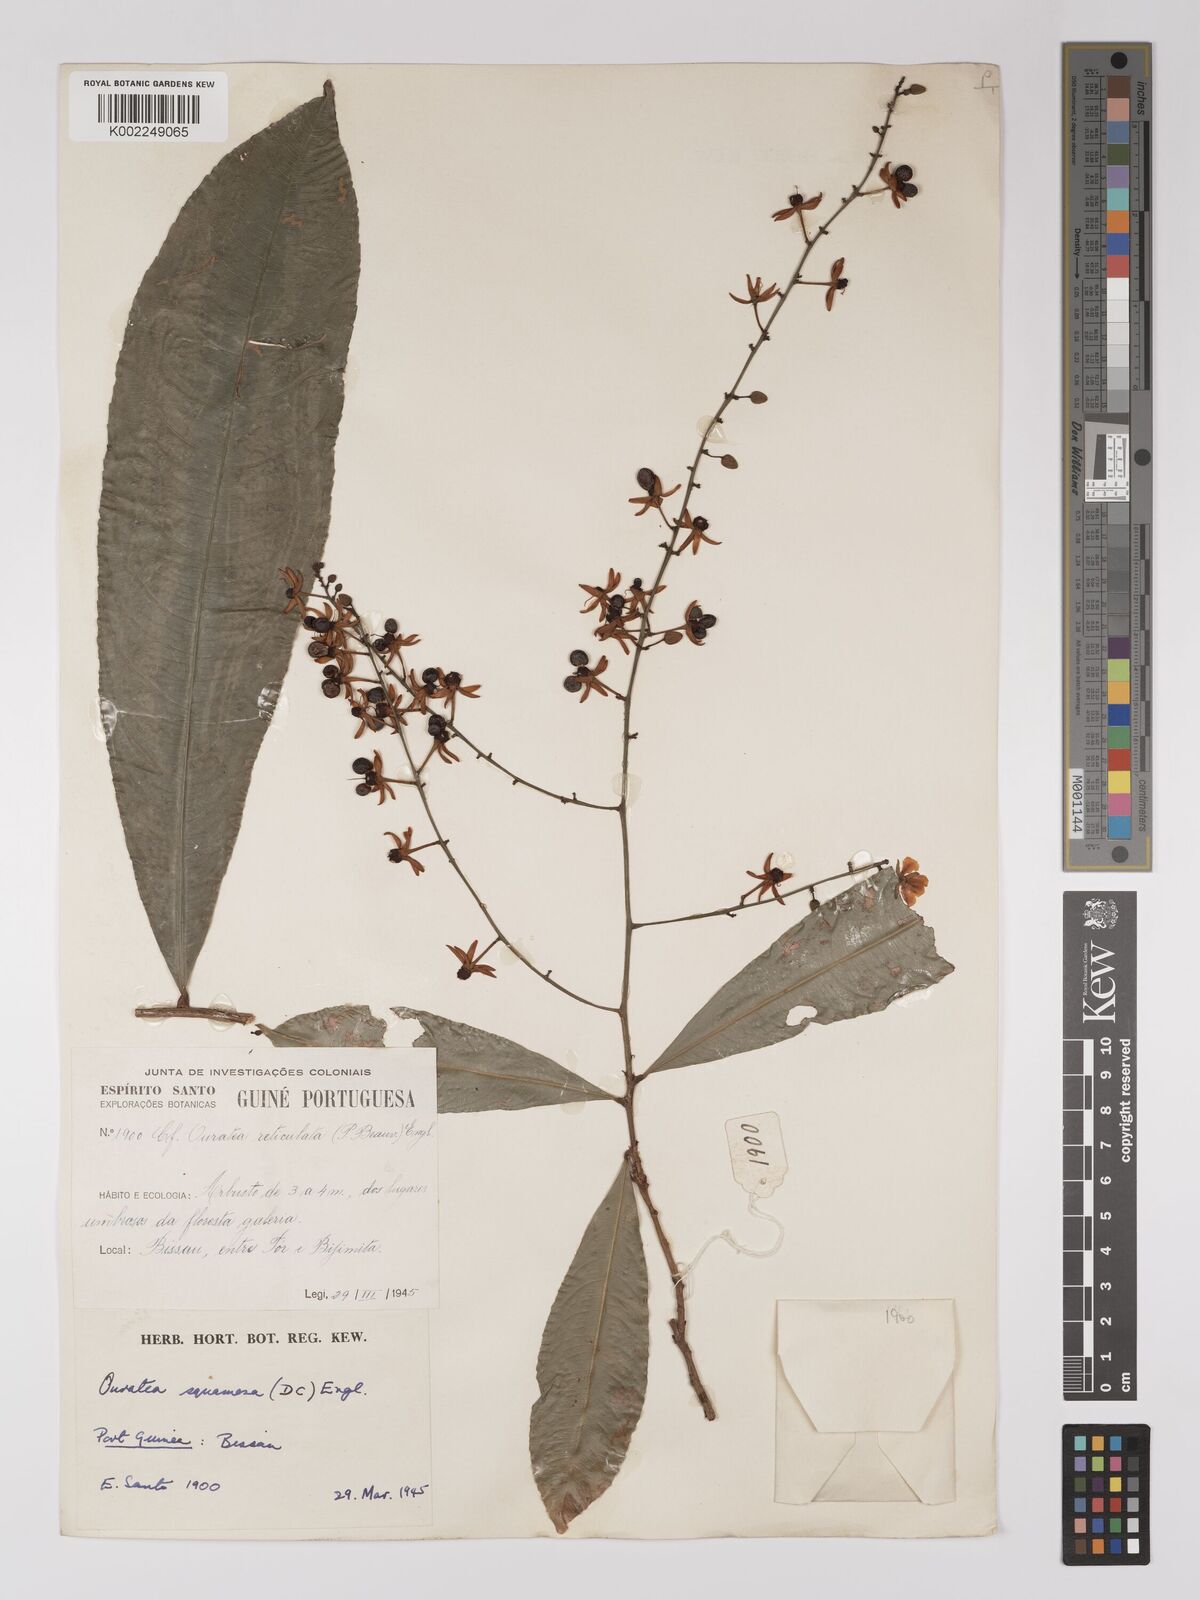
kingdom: Plantae
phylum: Tracheophyta
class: Magnoliopsida
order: Malpighiales
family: Ochnaceae
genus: Campylospermum
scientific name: Campylospermum squamosum
